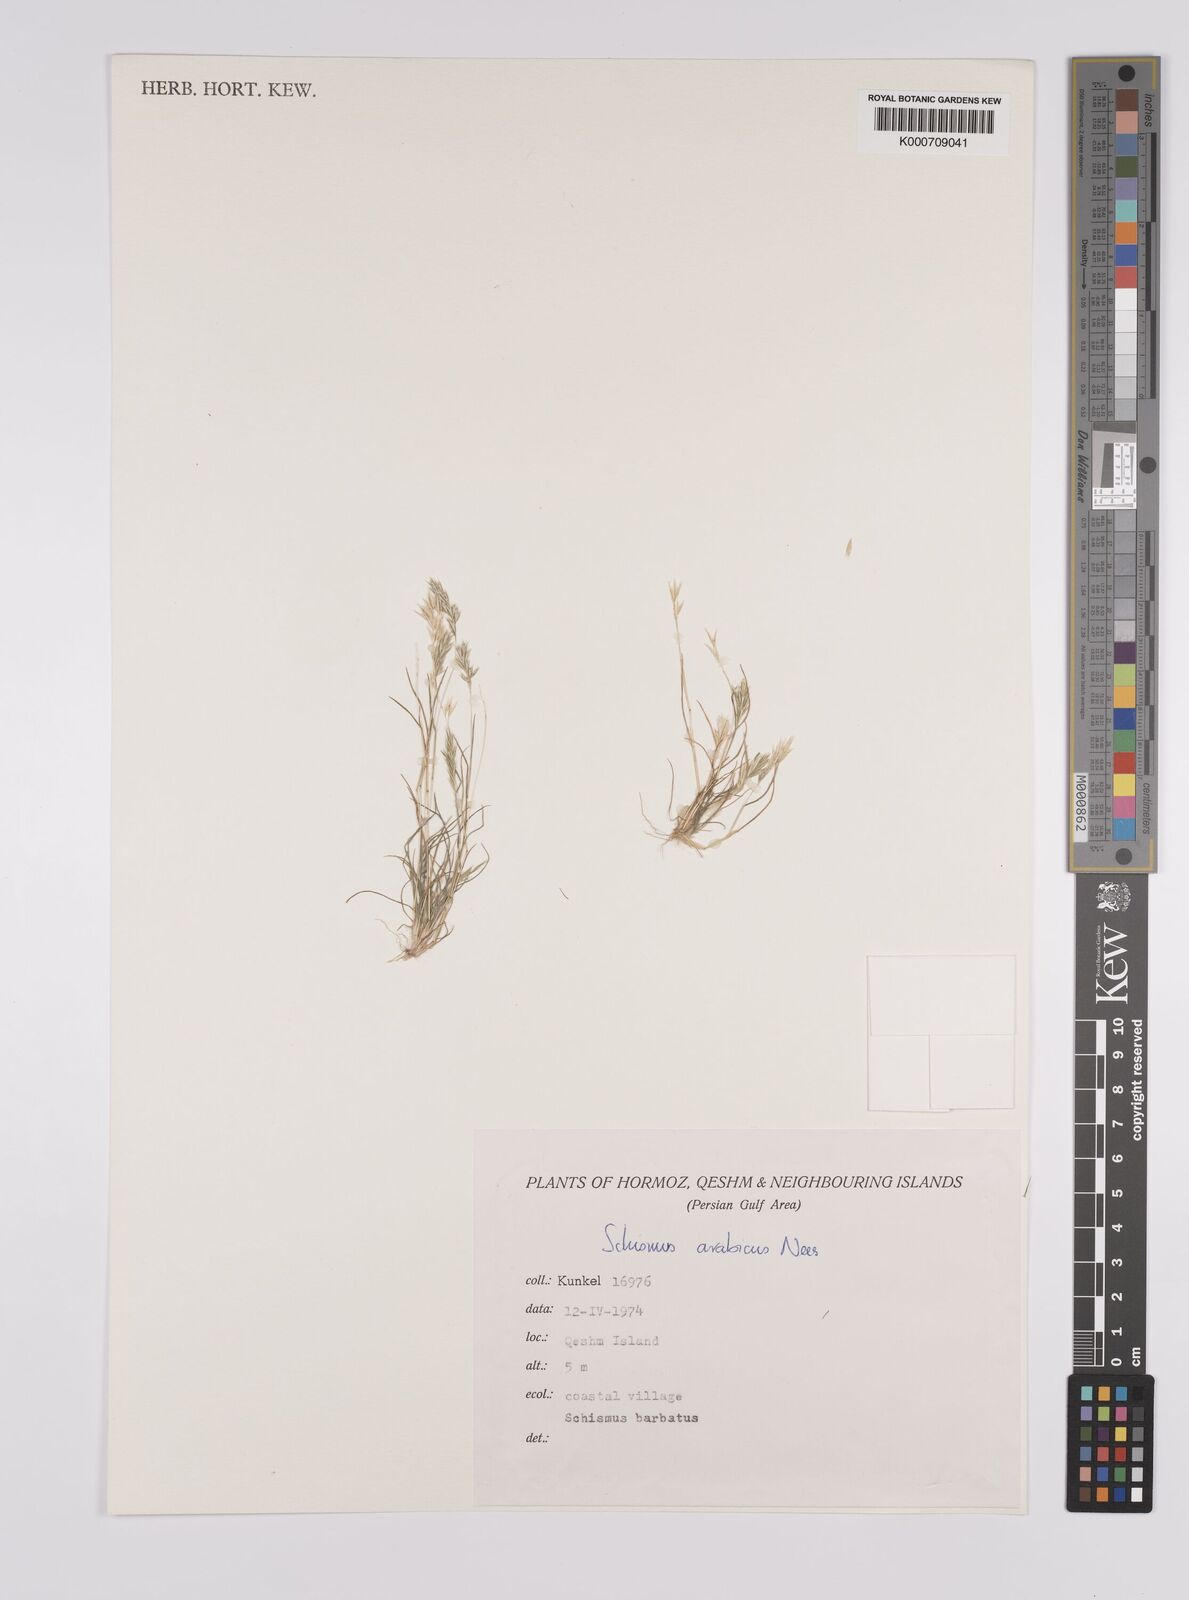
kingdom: Plantae
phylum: Tracheophyta
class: Liliopsida
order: Poales
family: Poaceae
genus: Schismus
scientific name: Schismus arabicus
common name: Arabian schismus
